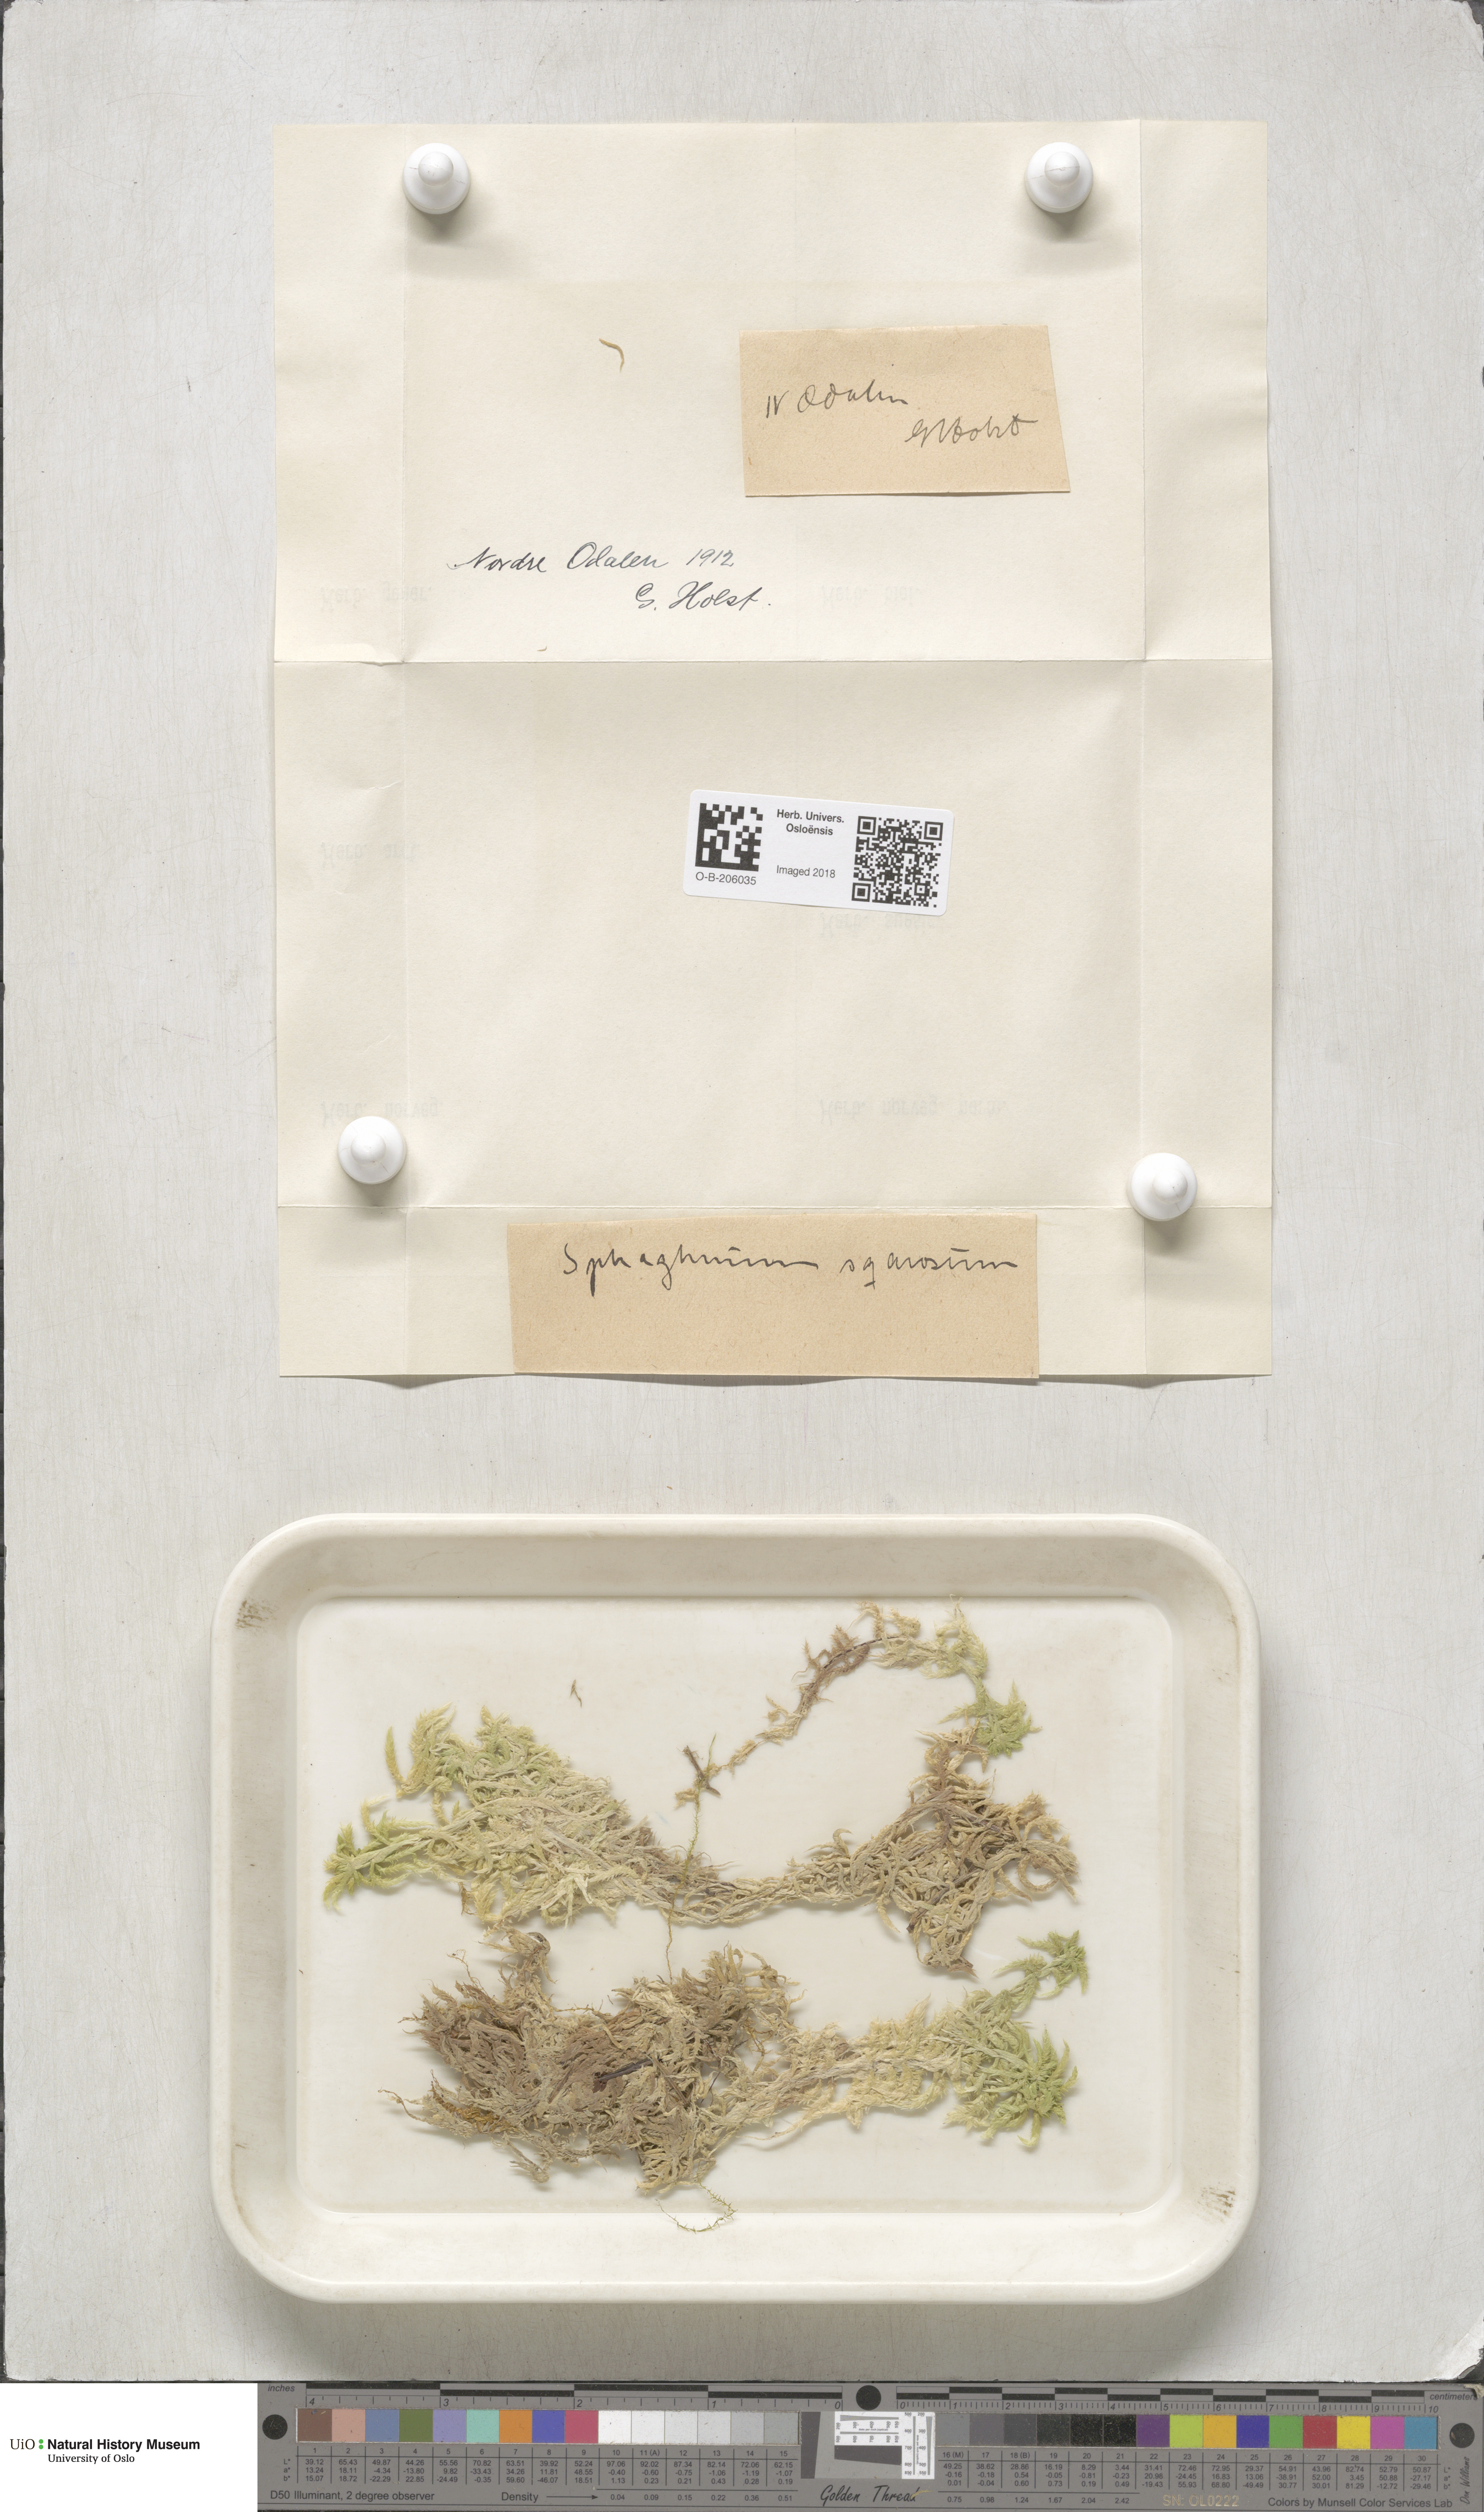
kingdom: Plantae
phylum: Bryophyta
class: Sphagnopsida
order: Sphagnales
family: Sphagnaceae
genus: Sphagnum
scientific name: Sphagnum squarrosum
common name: Shaggy peat moss
